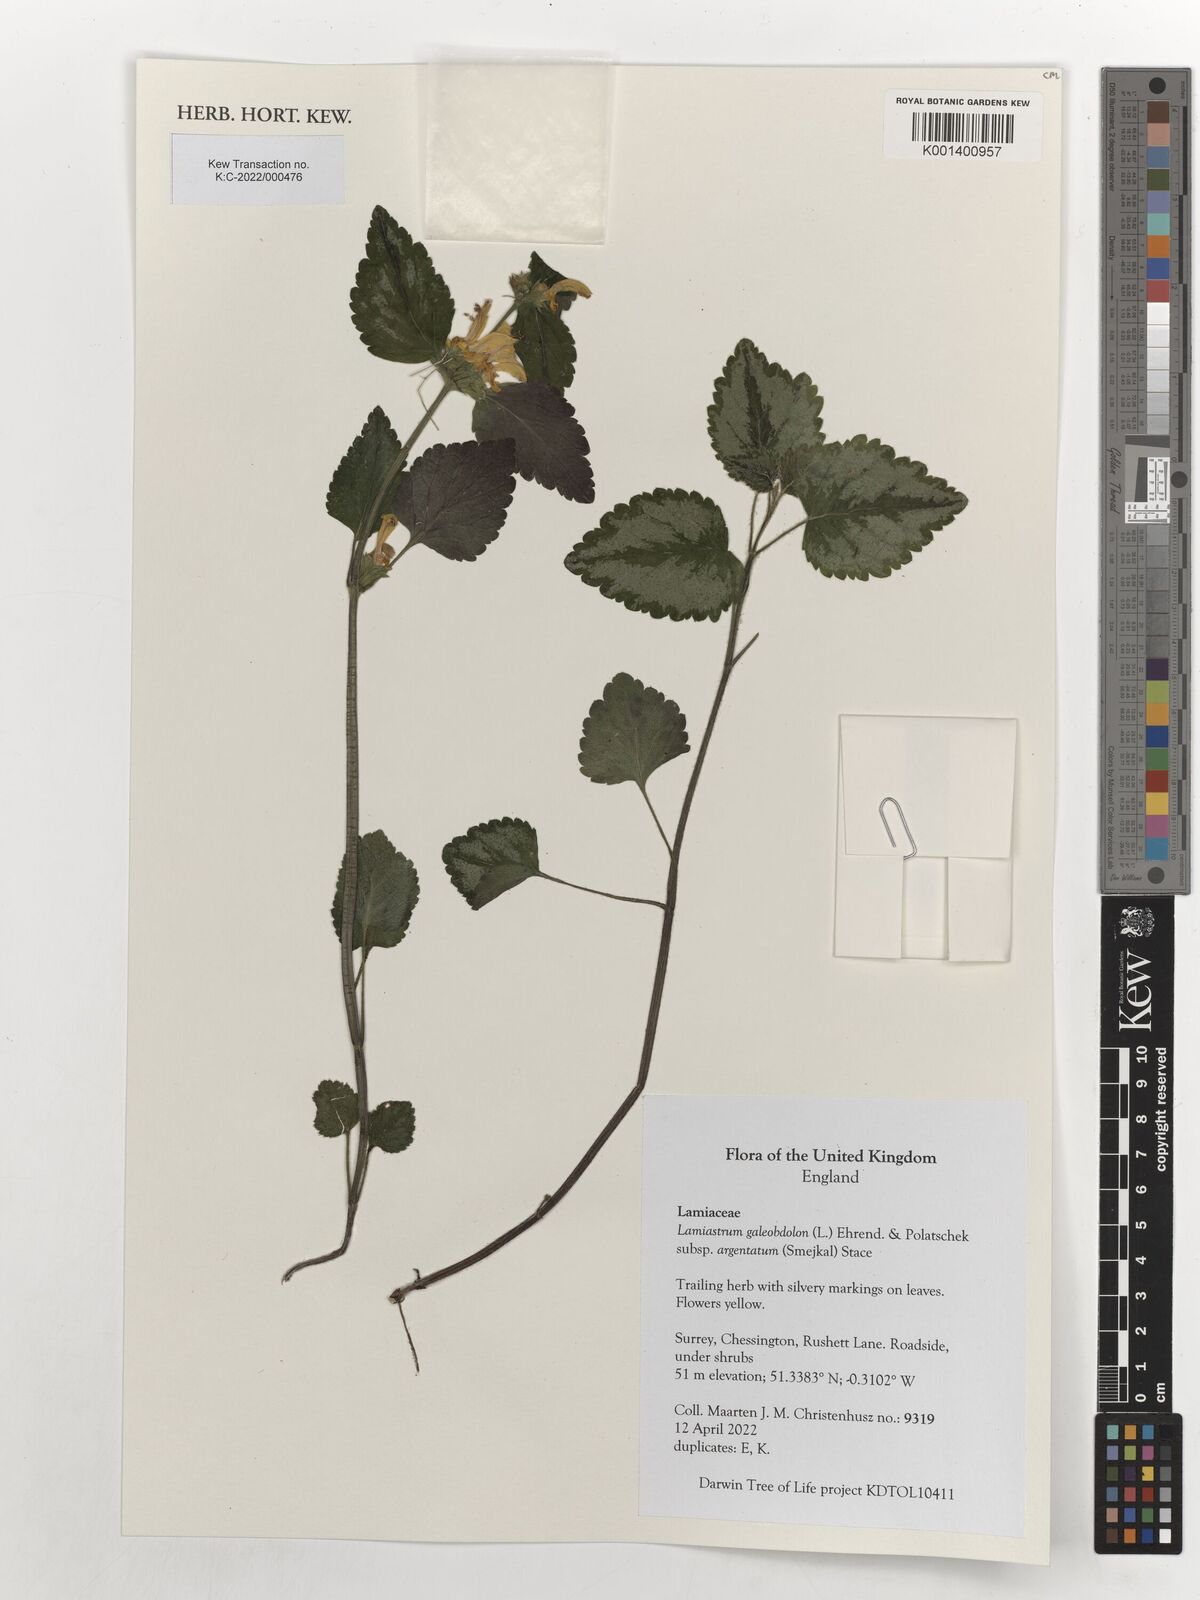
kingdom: Plantae
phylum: Tracheophyta
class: Magnoliopsida
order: Lamiales
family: Lamiaceae
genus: Lamium
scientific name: Lamium galeobdolon
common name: Yellow archangel
